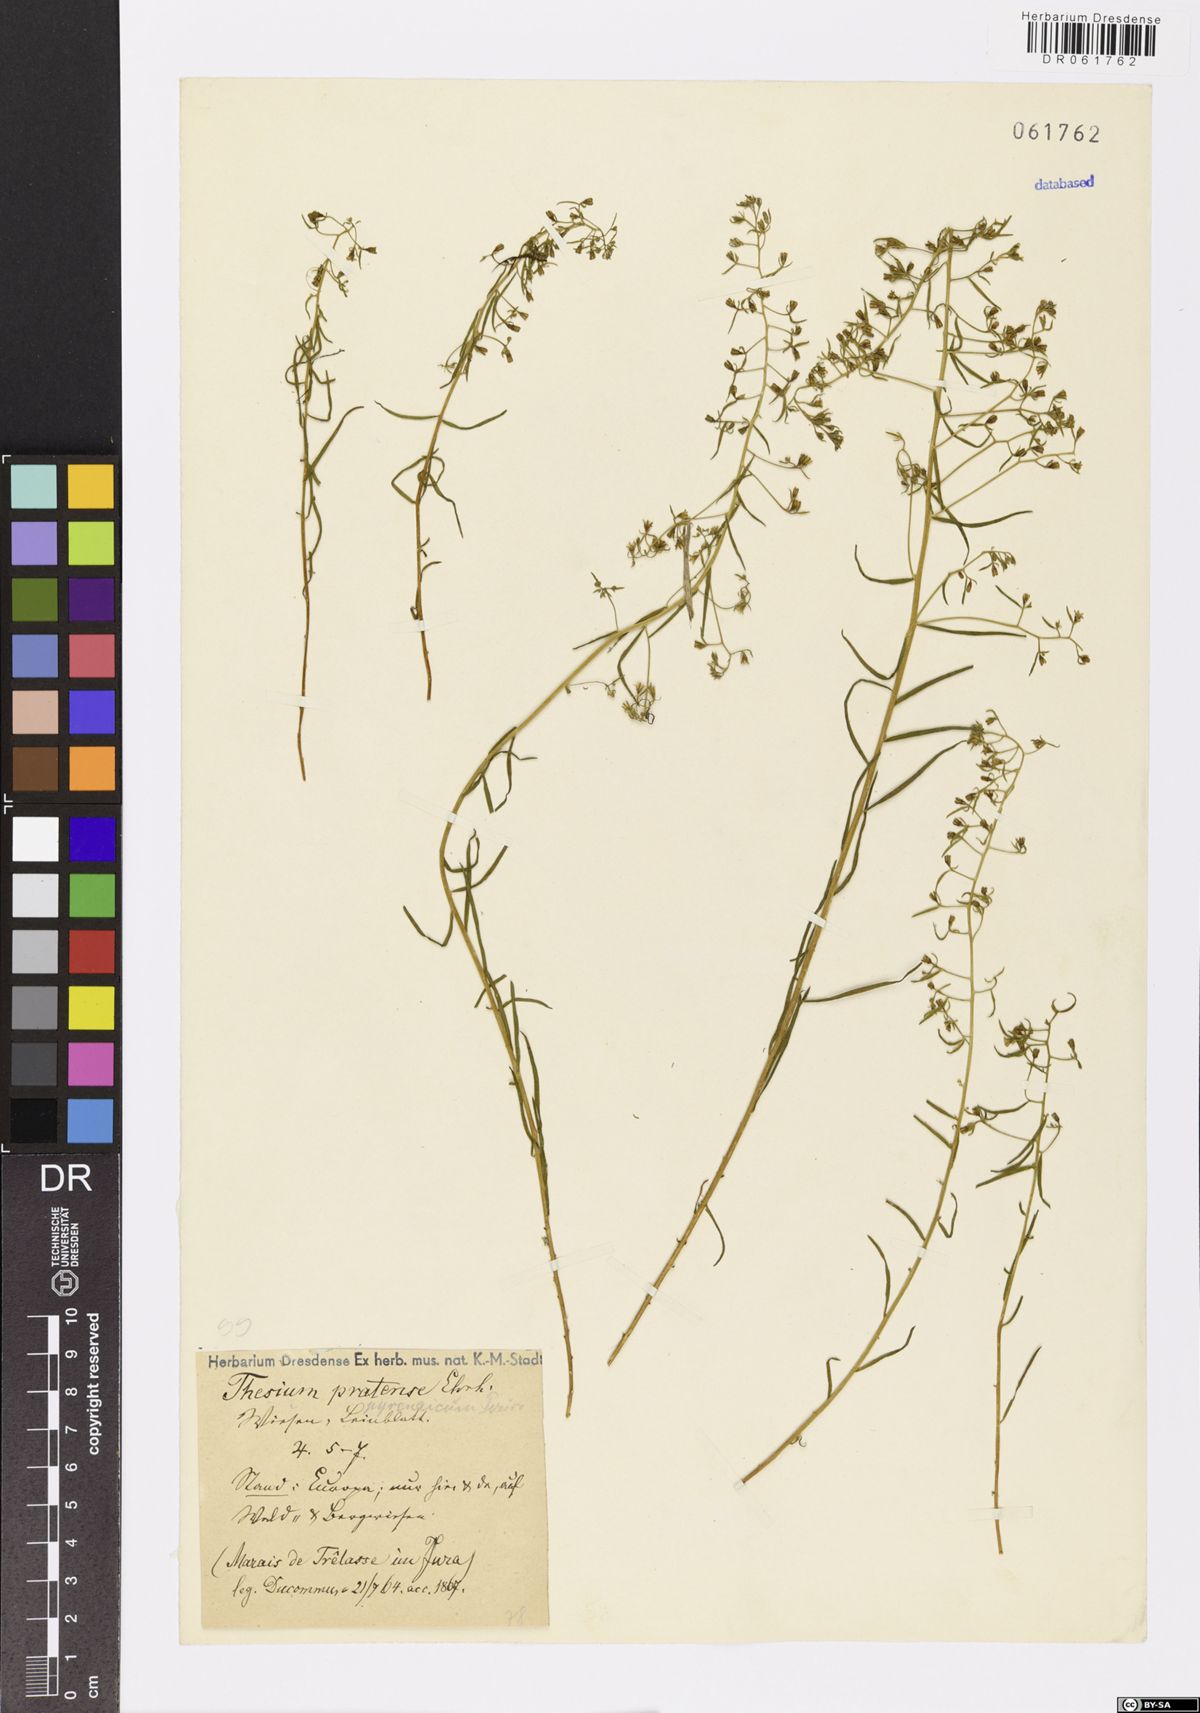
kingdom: Plantae
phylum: Tracheophyta
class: Magnoliopsida
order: Santalales
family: Thesiaceae
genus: Thesium
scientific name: Thesium pyrenaicum
